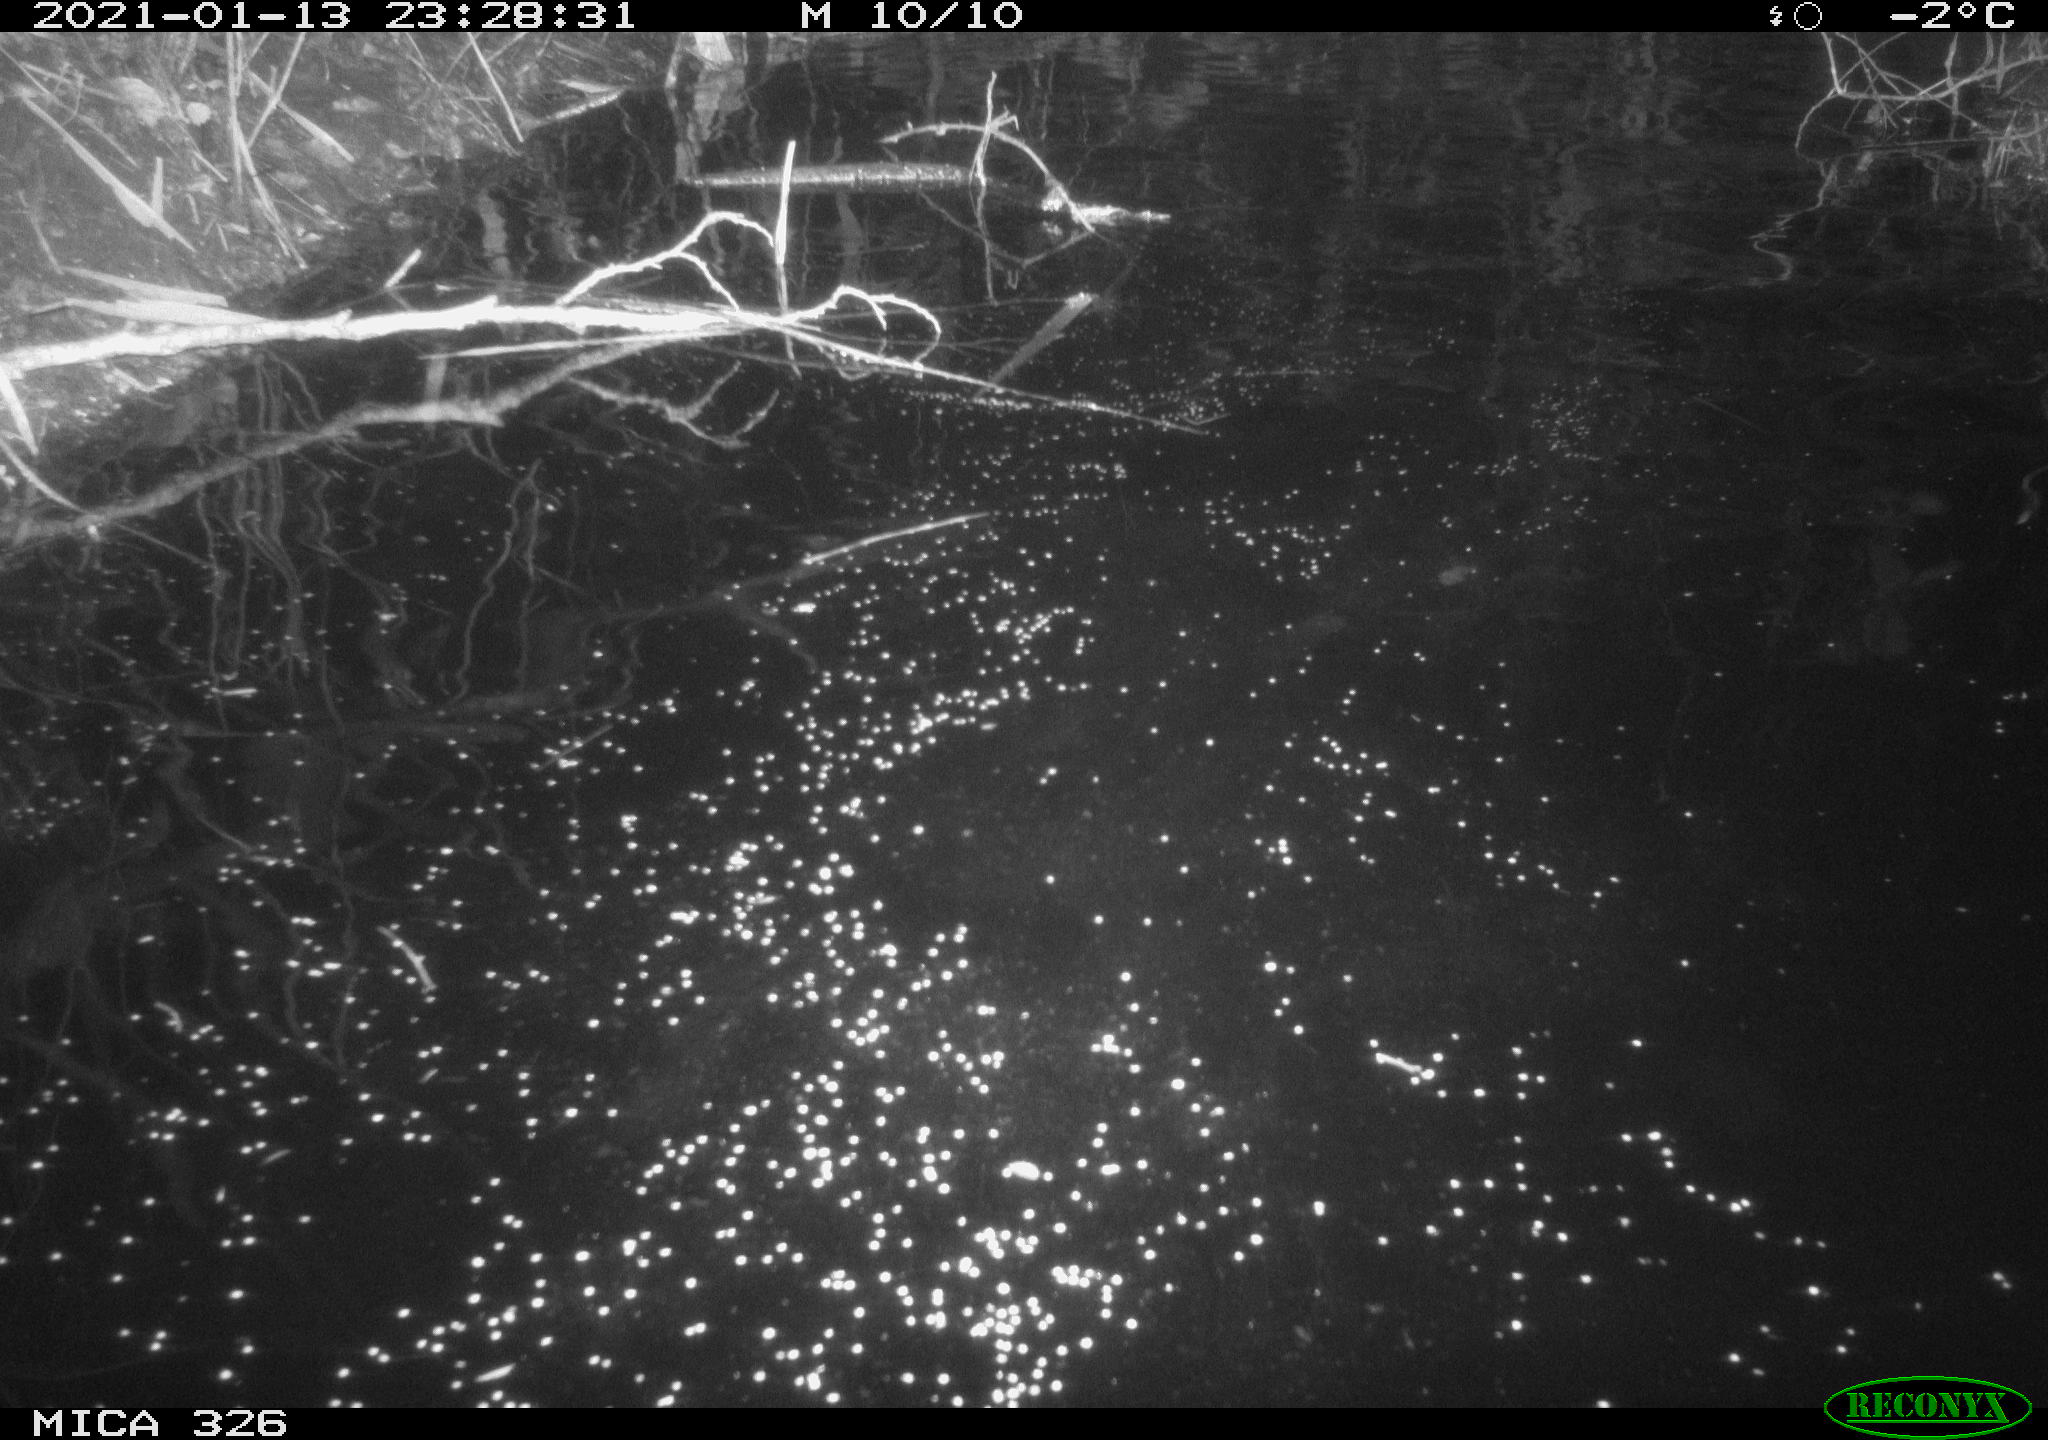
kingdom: Animalia
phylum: Chordata
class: Mammalia
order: Rodentia
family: Myocastoridae
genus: Myocastor
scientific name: Myocastor coypus
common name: Coypu
